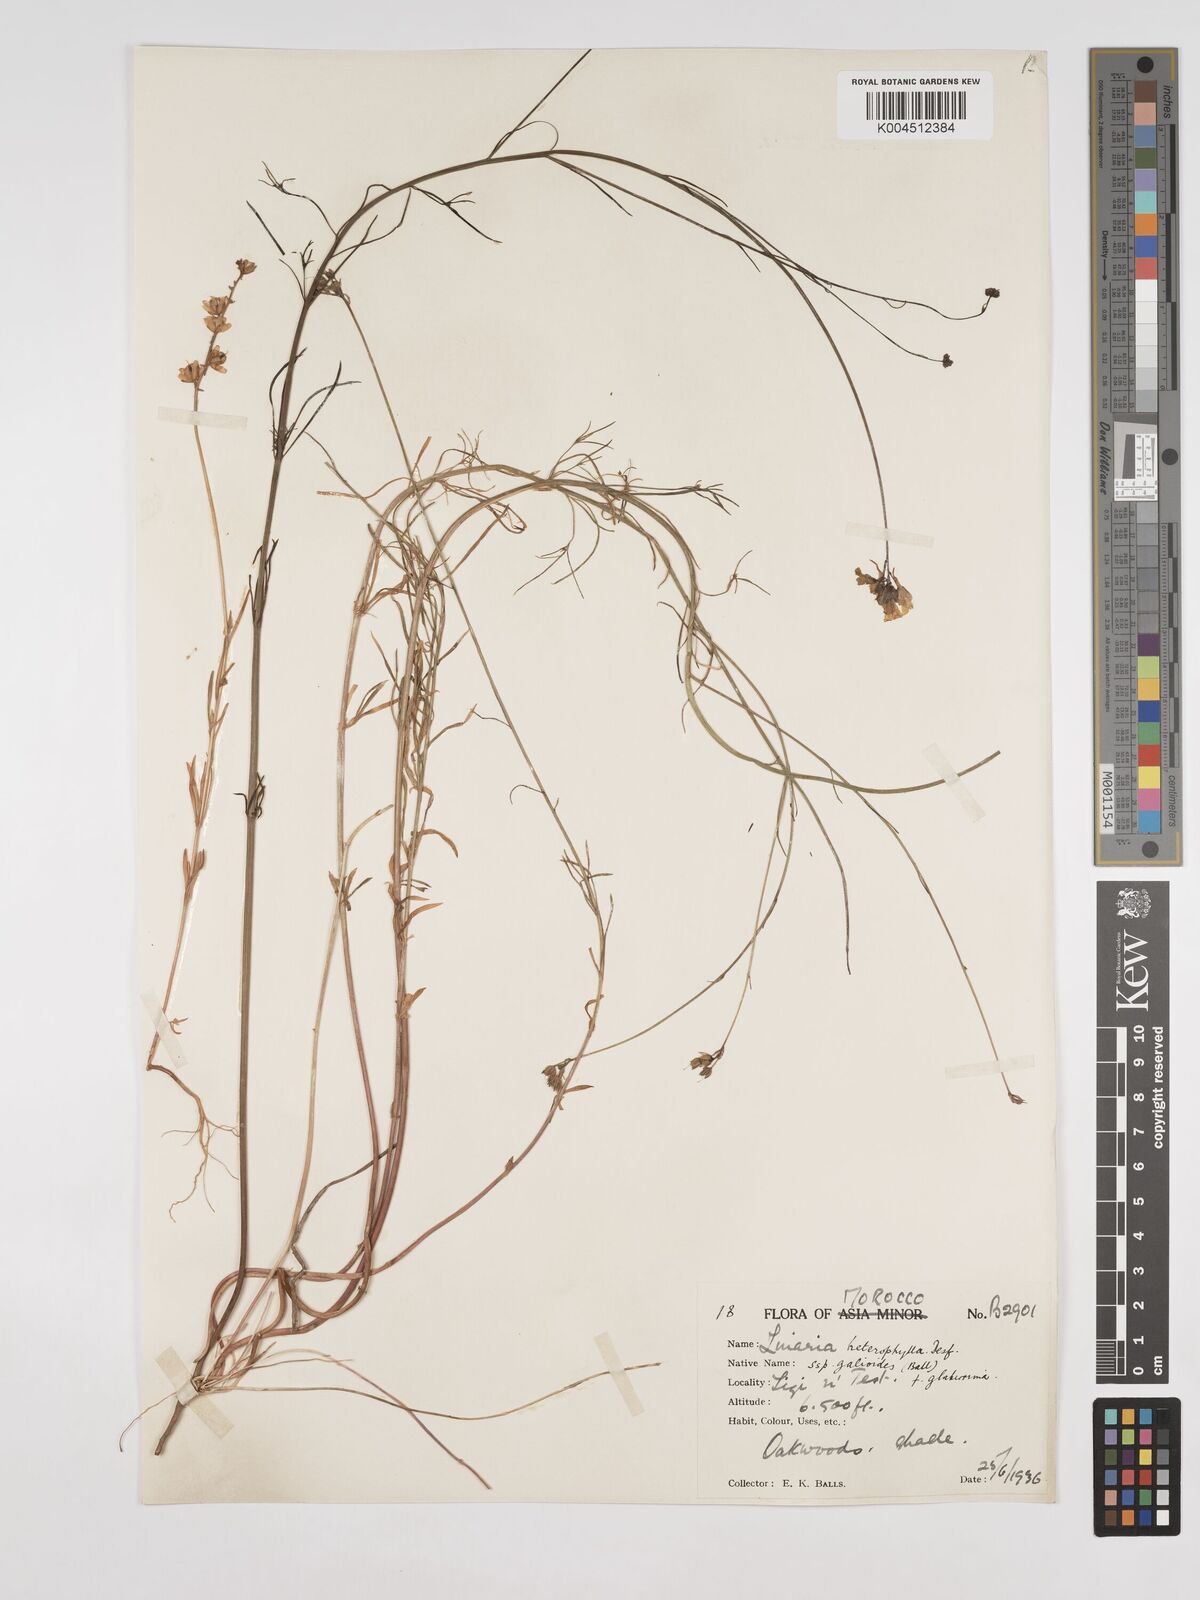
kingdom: Plantae
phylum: Tracheophyta
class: Magnoliopsida
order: Lamiales
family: Plantaginaceae
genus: Linaria
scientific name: Linaria
